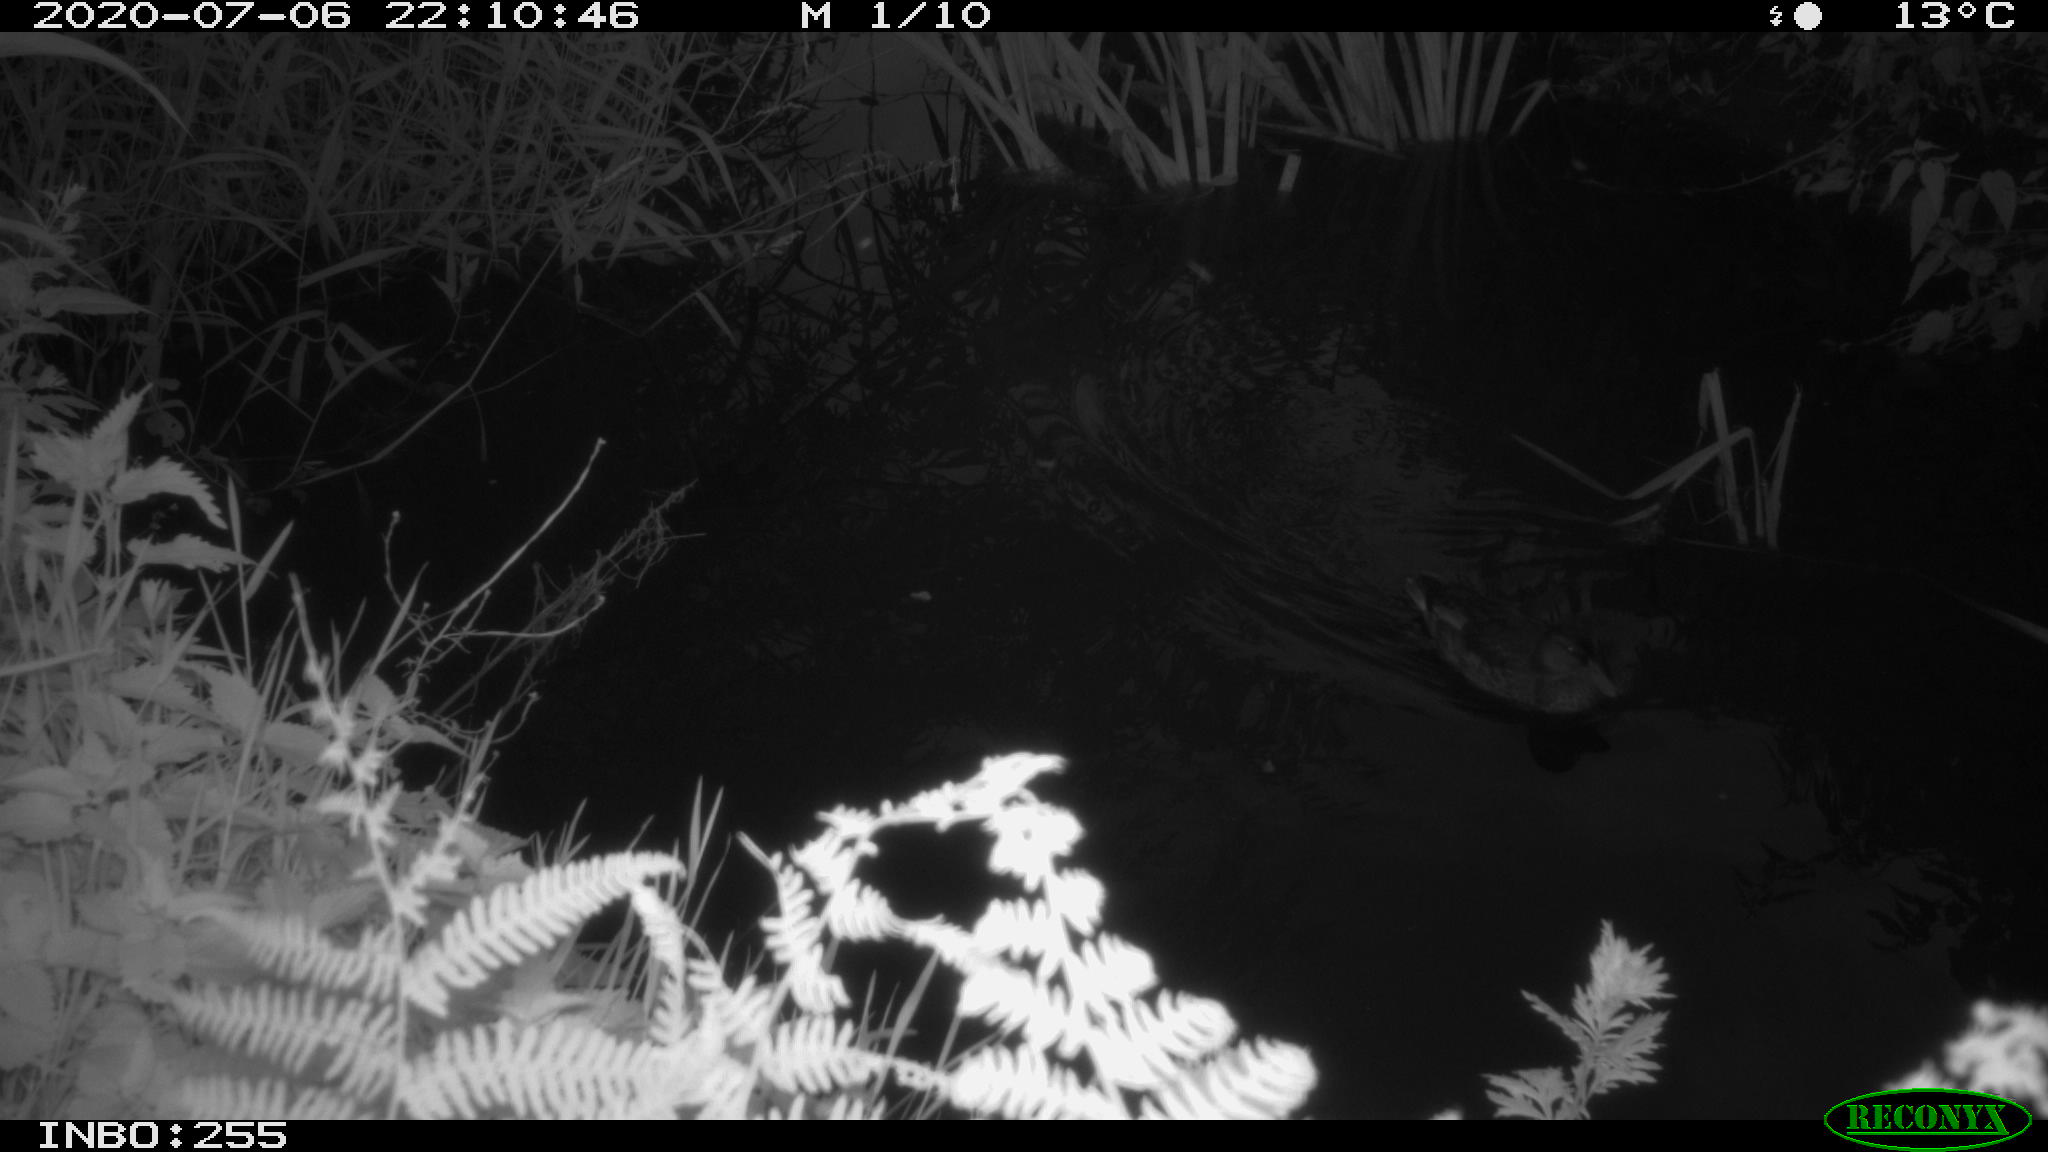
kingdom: Animalia
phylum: Chordata
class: Aves
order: Anseriformes
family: Anatidae
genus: Anas
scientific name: Anas platyrhynchos
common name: Mallard
